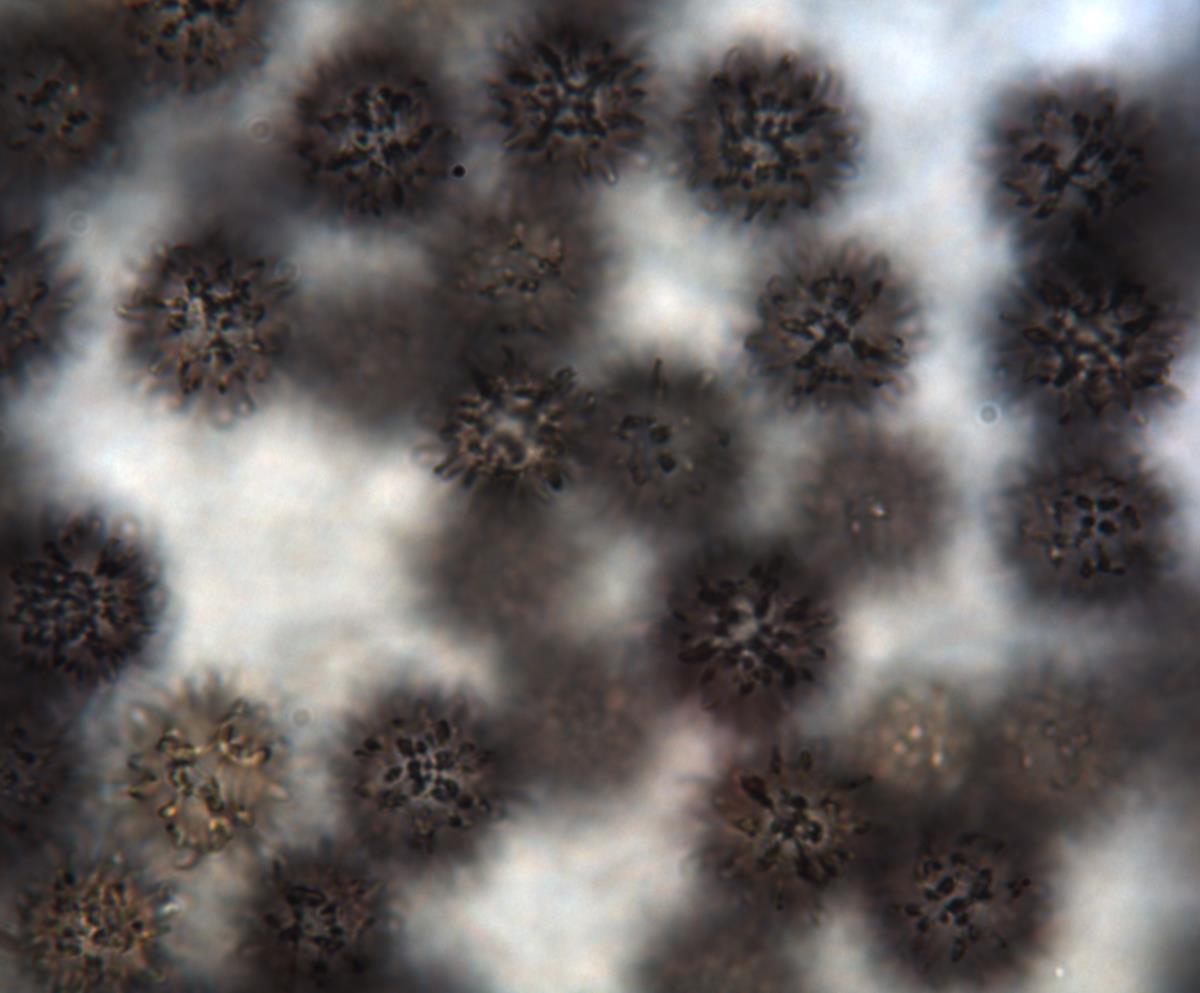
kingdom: Fungi
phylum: Basidiomycota
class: Agaricomycetes
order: Russulales
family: Russulaceae
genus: Russula
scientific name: Russula osphranticarpa
